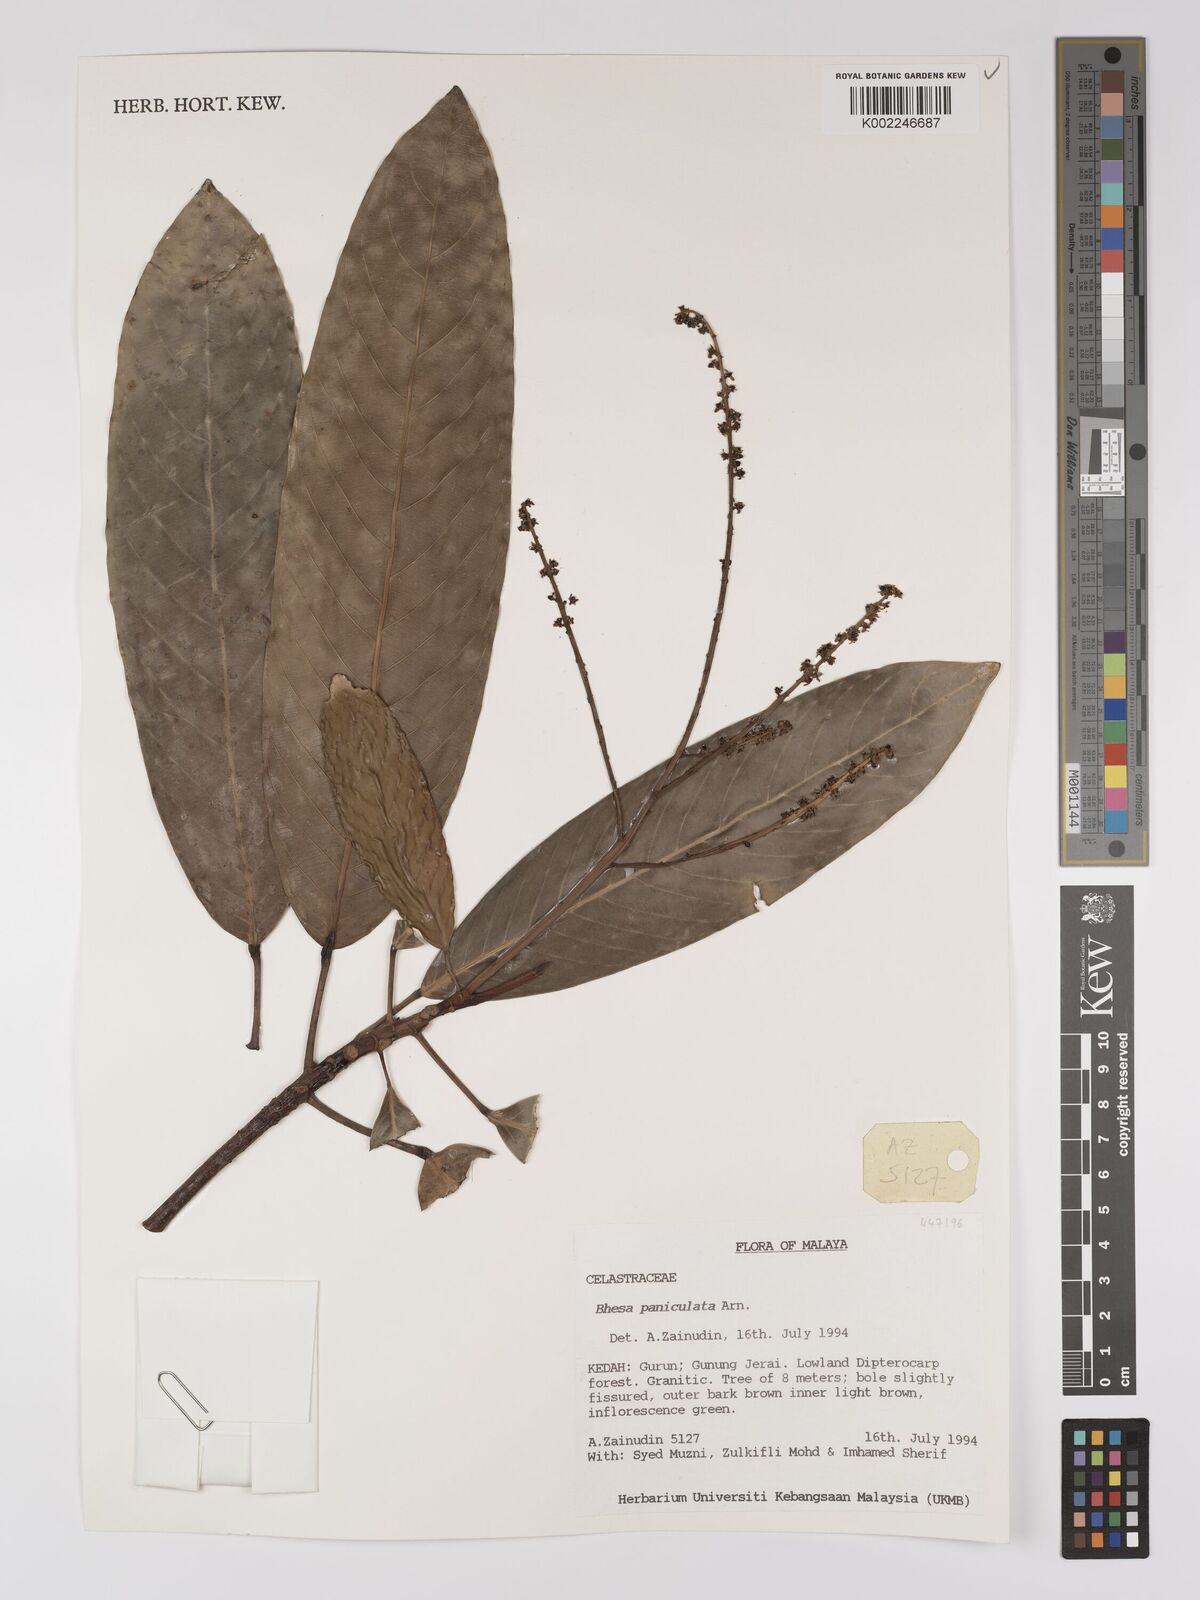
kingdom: Plantae
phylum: Tracheophyta
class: Magnoliopsida
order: Malpighiales
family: Centroplacaceae
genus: Bhesa
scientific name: Bhesa paniculata
